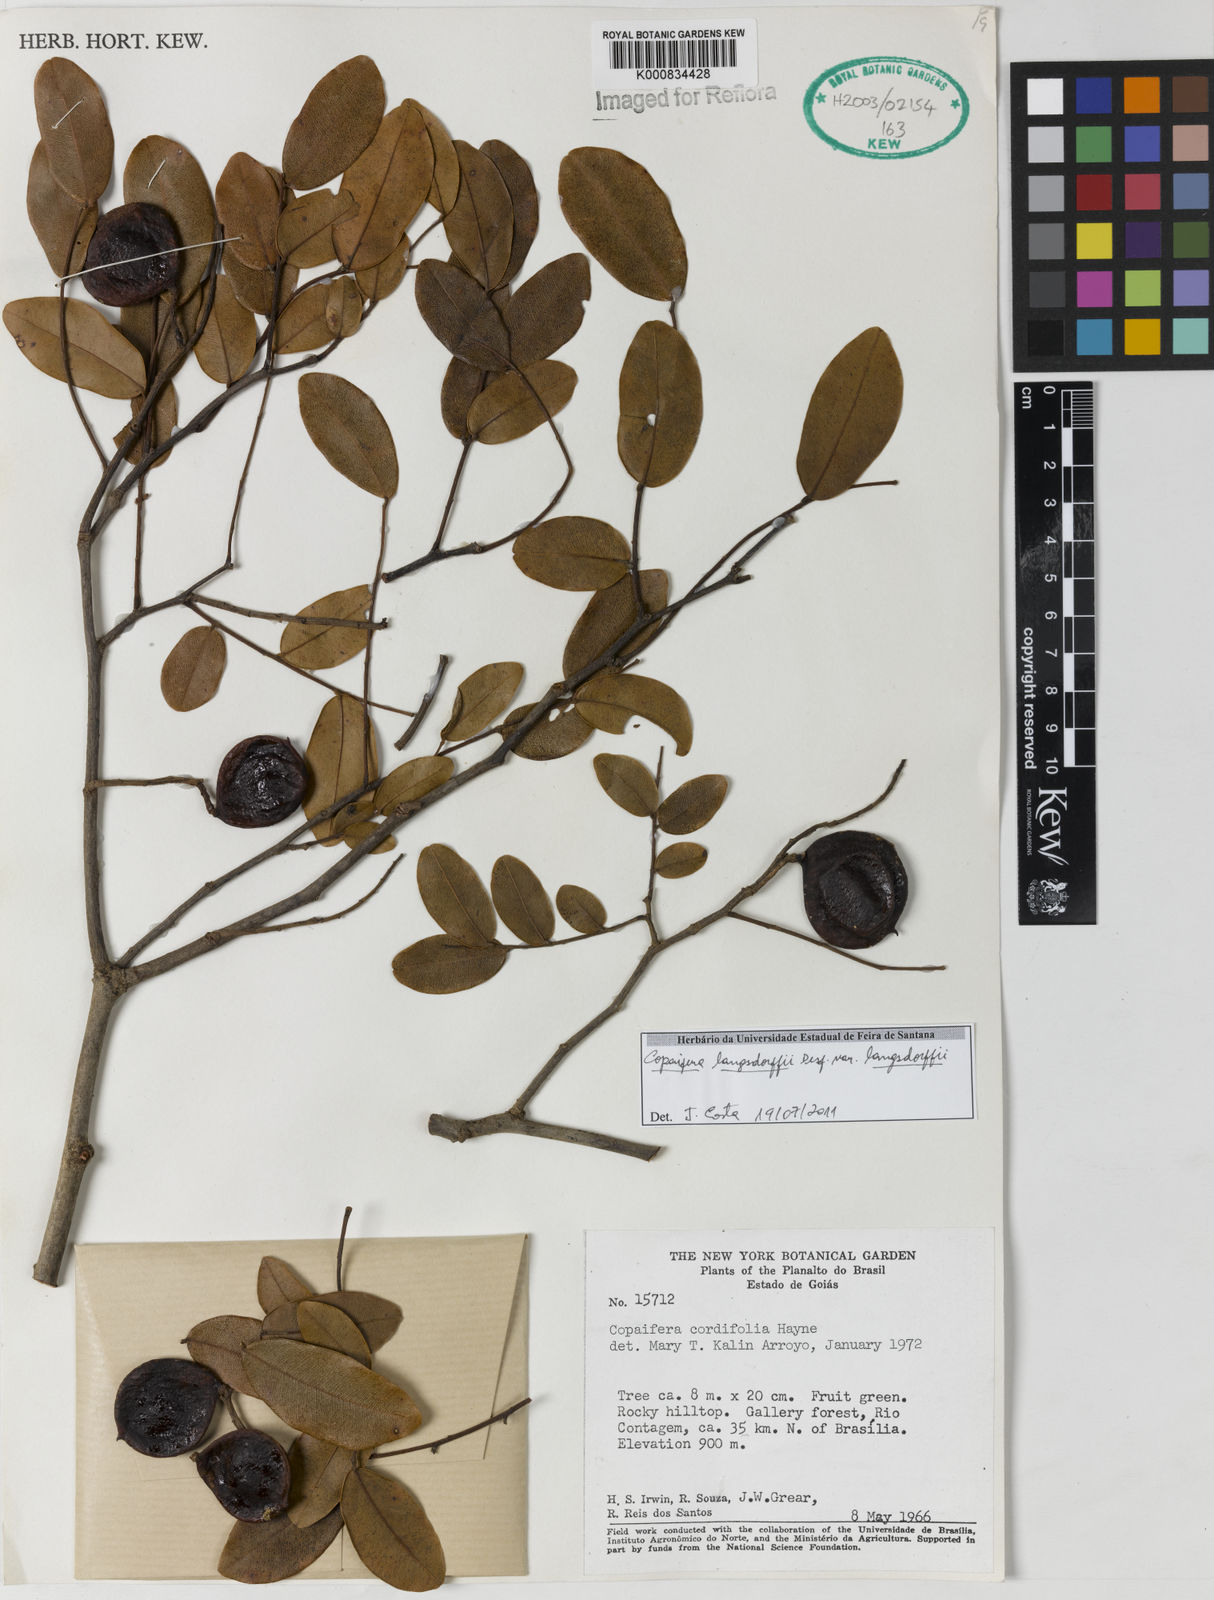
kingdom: Plantae
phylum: Tracheophyta
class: Magnoliopsida
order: Fabales
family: Fabaceae
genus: Copaifera
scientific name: Copaifera langsdorffii
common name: Brazilian diesel tree
